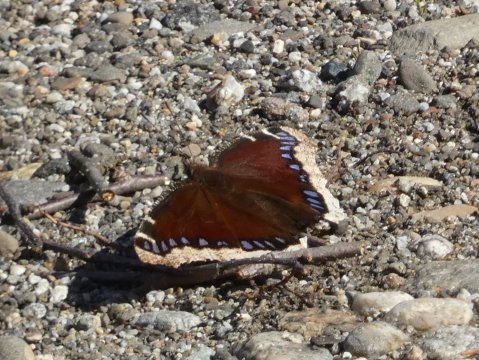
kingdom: Animalia
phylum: Arthropoda
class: Insecta
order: Lepidoptera
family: Nymphalidae
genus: Nymphalis
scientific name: Nymphalis antiopa
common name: Mourning Cloak
